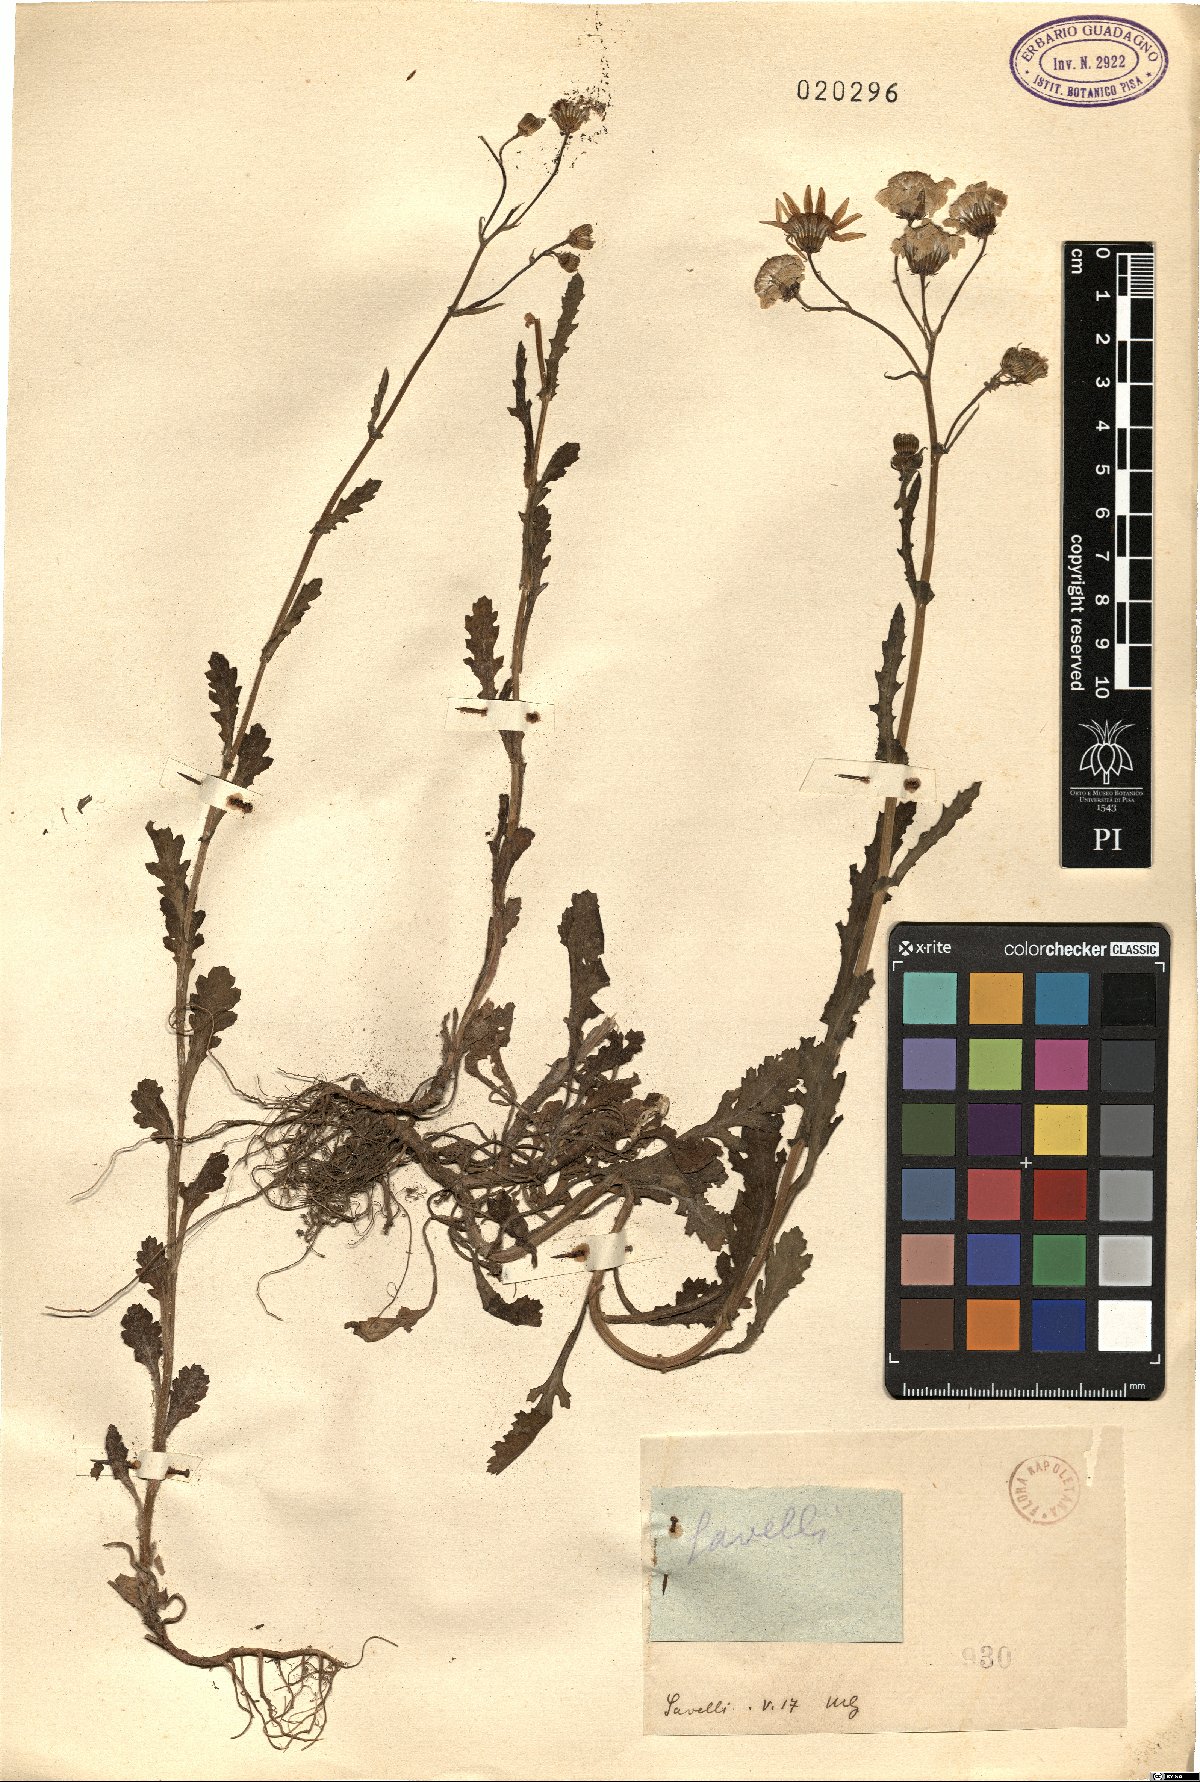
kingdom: Plantae
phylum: Tracheophyta
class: Magnoliopsida
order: Asterales
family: Asteraceae
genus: Senecio
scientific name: Senecio
